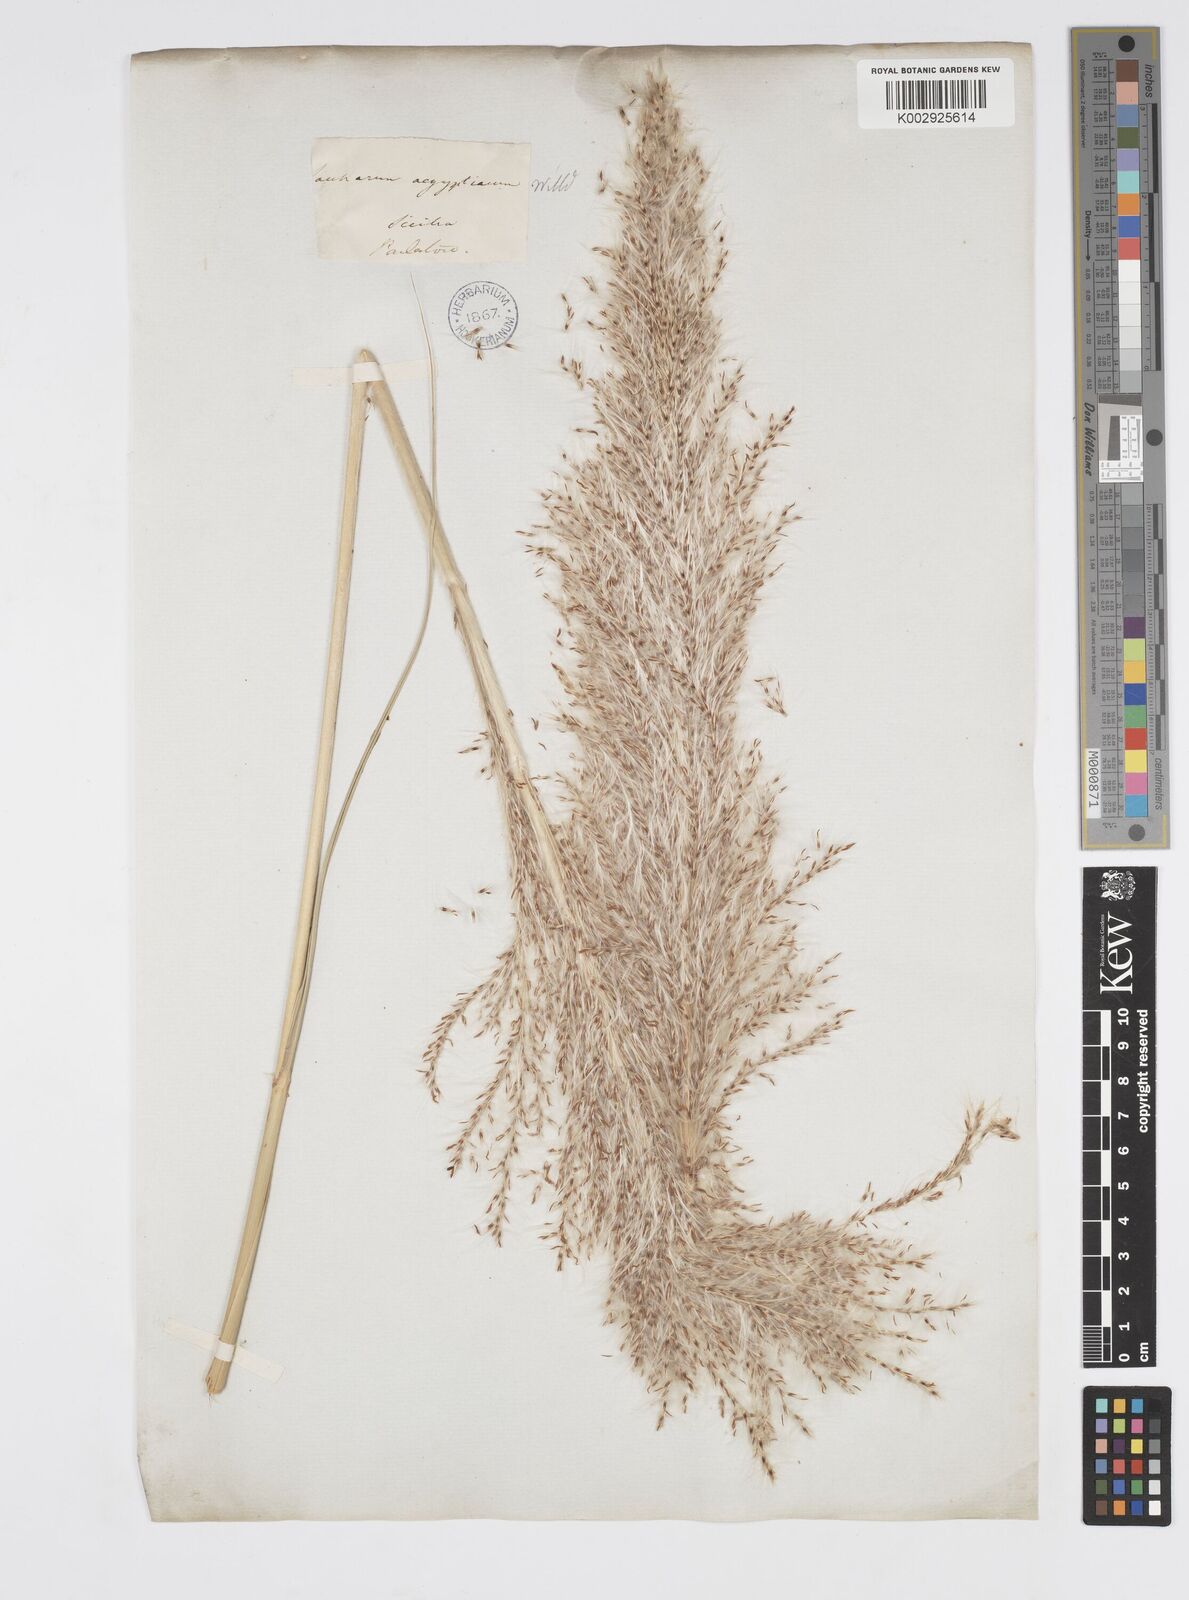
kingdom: Plantae
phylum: Tracheophyta
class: Liliopsida
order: Poales
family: Poaceae
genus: Saccharum
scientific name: Saccharum spontaneum
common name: Wild sugarcane
